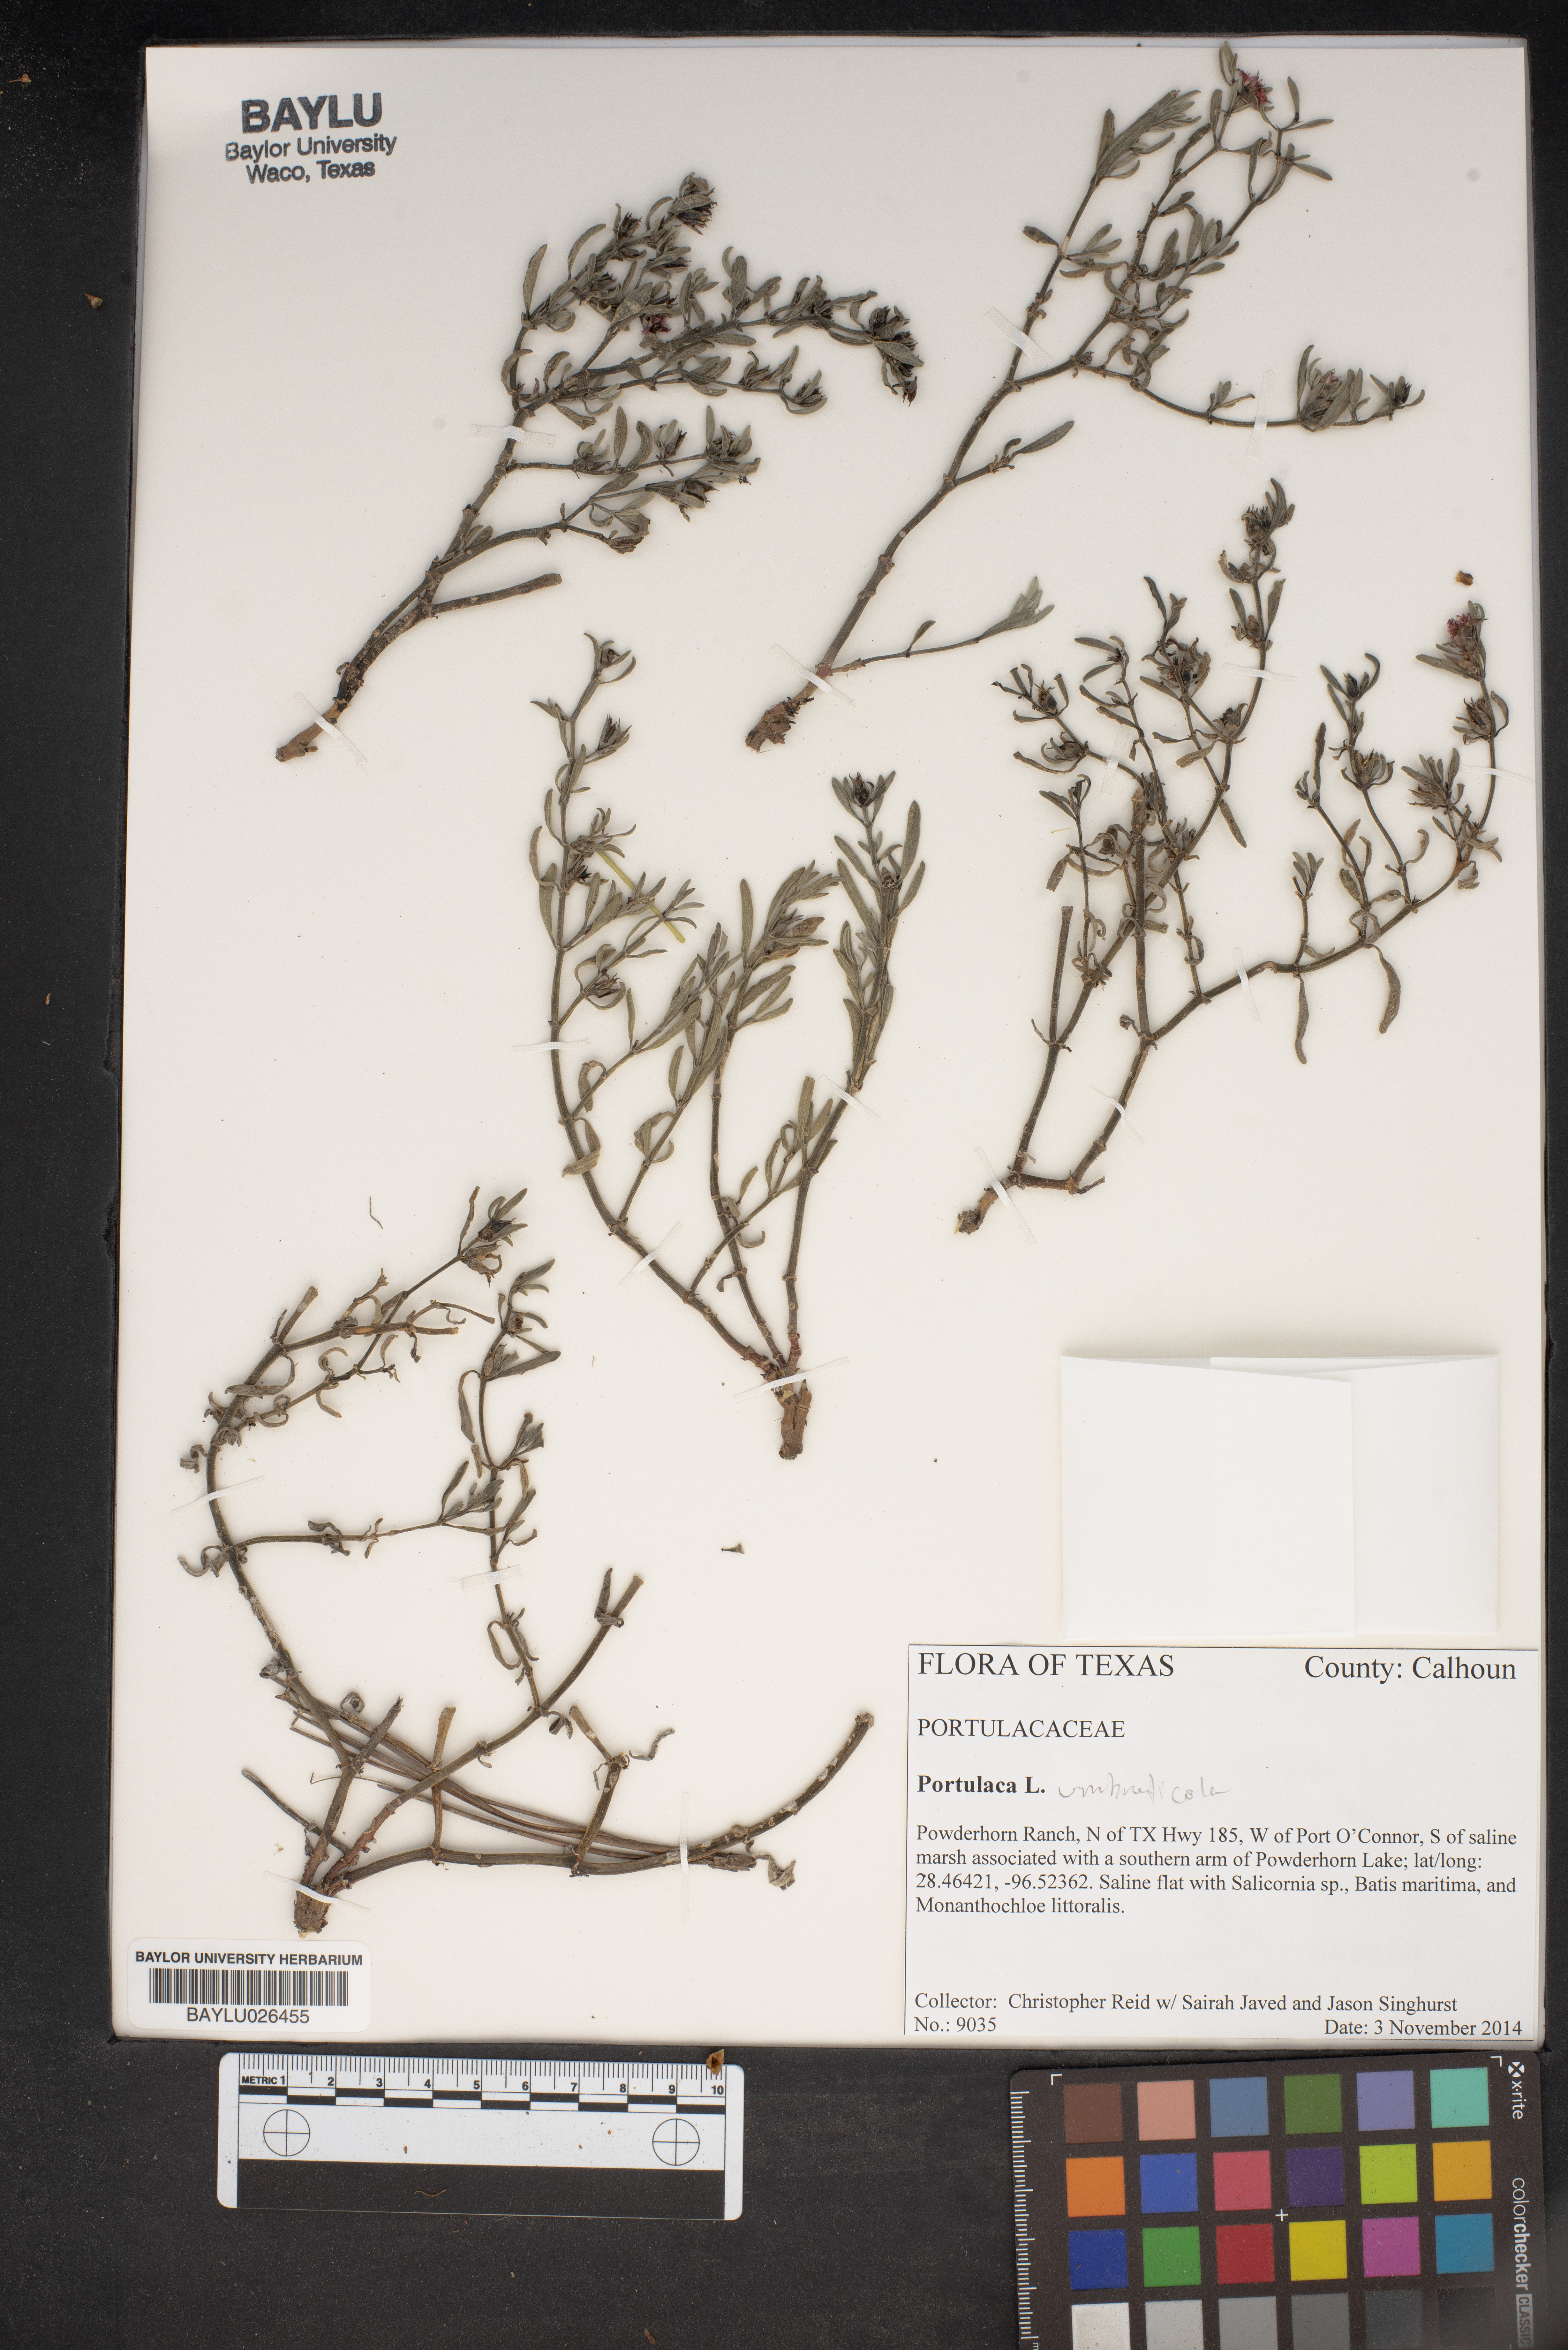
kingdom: Plantae
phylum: Tracheophyta
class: Magnoliopsida
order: Caryophyllales
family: Portulacaceae
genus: Portulaca
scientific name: Portulaca
